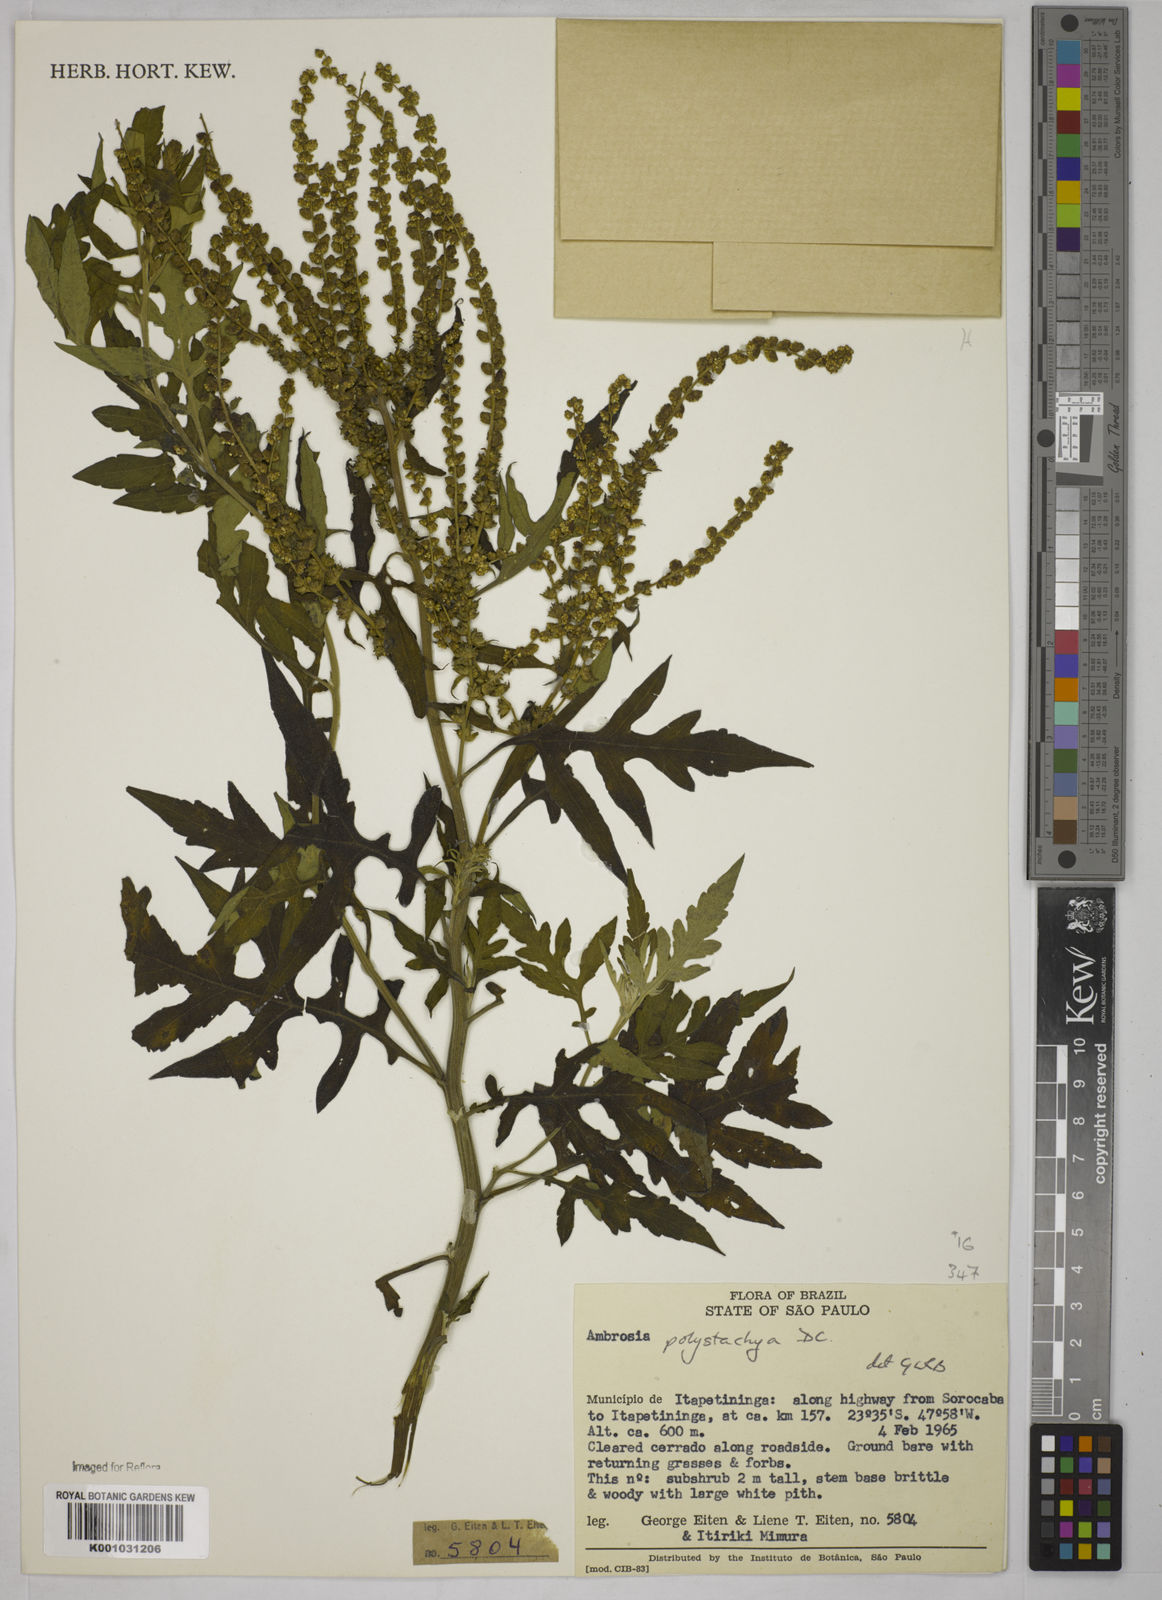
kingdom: Plantae
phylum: Tracheophyta
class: Magnoliopsida
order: Asterales
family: Asteraceae
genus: Ambrosia
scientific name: Ambrosia polystachya
